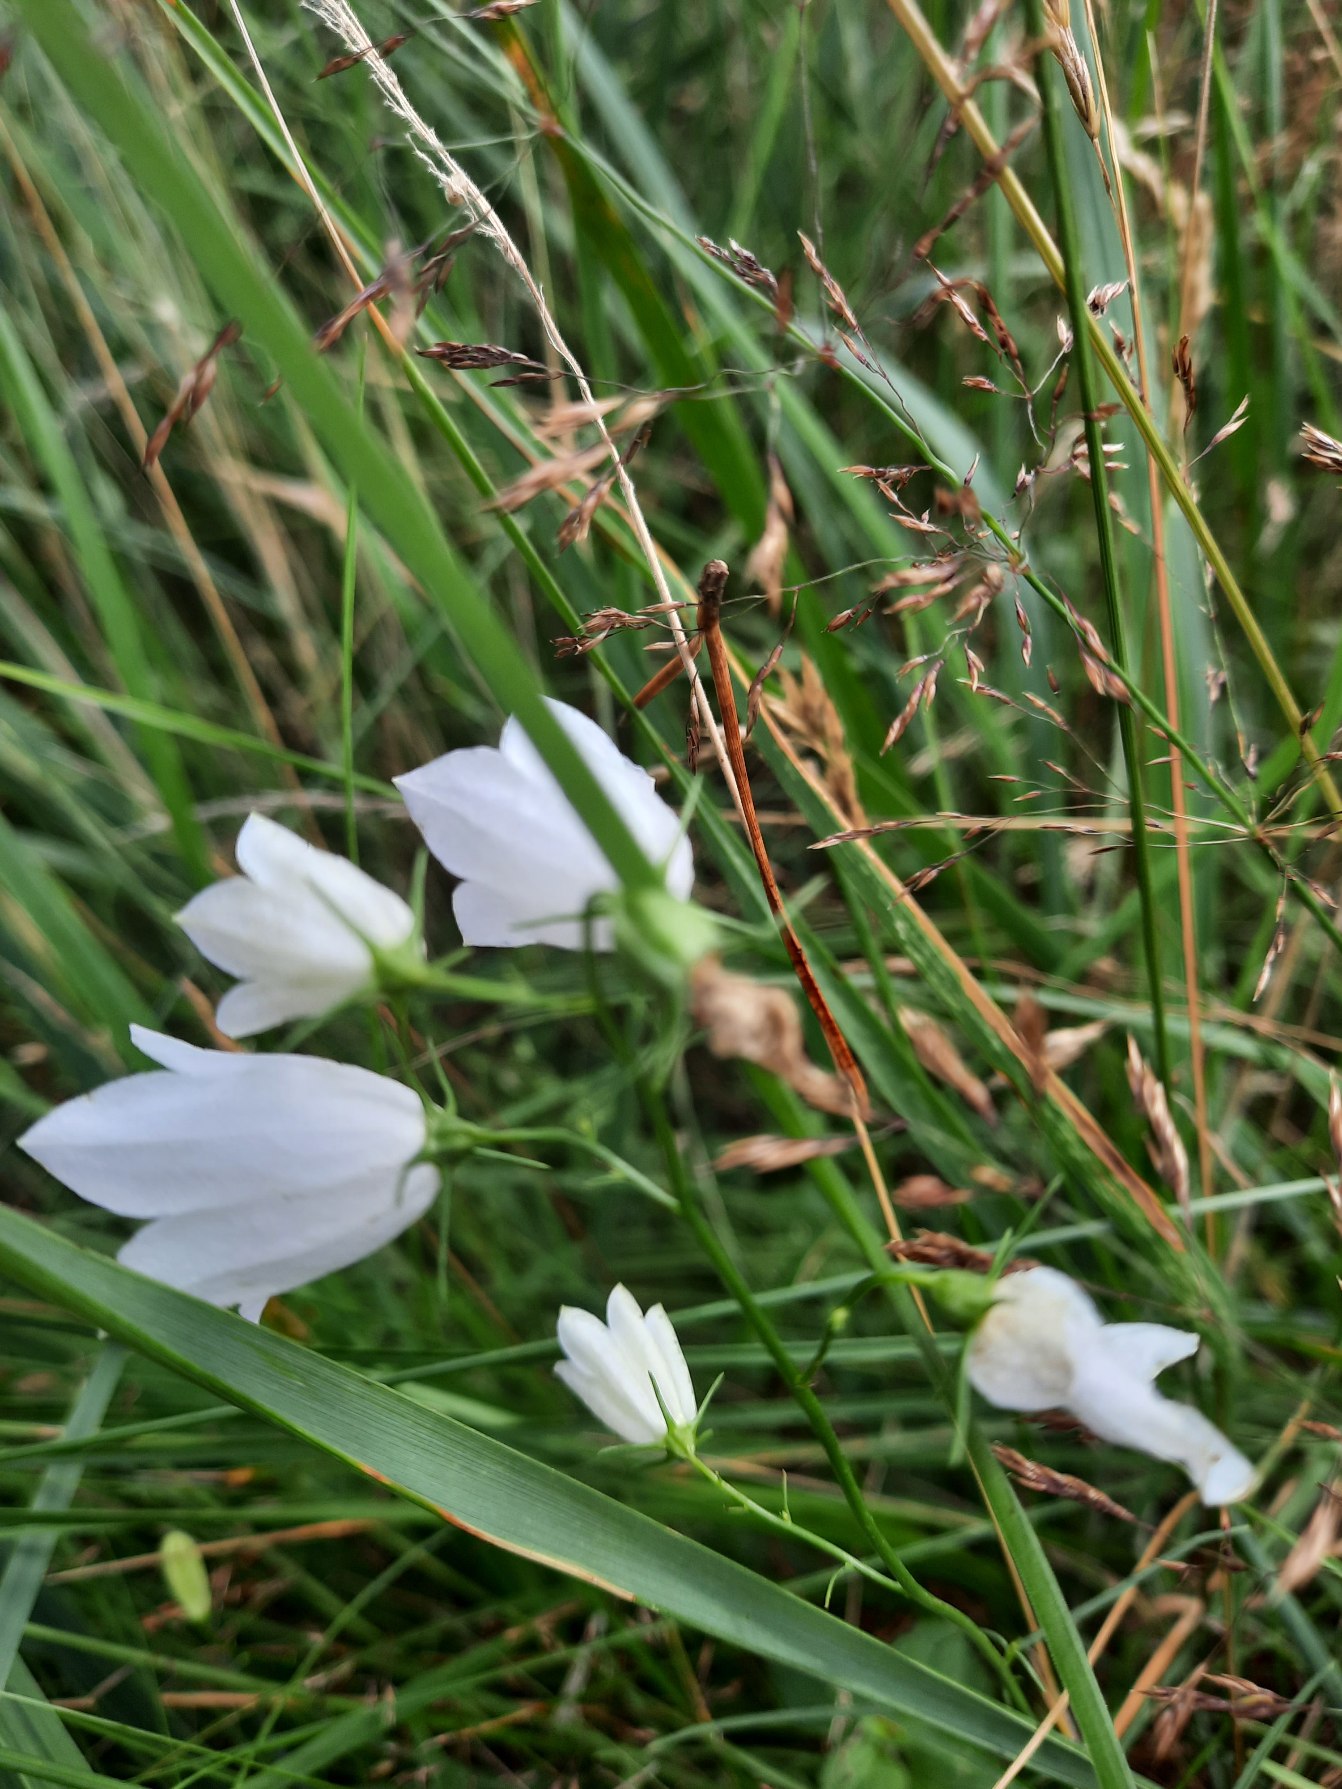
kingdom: Plantae
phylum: Tracheophyta
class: Magnoliopsida
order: Asterales
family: Campanulaceae
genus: Campanula
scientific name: Campanula rotundifolia
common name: Liden klokke
